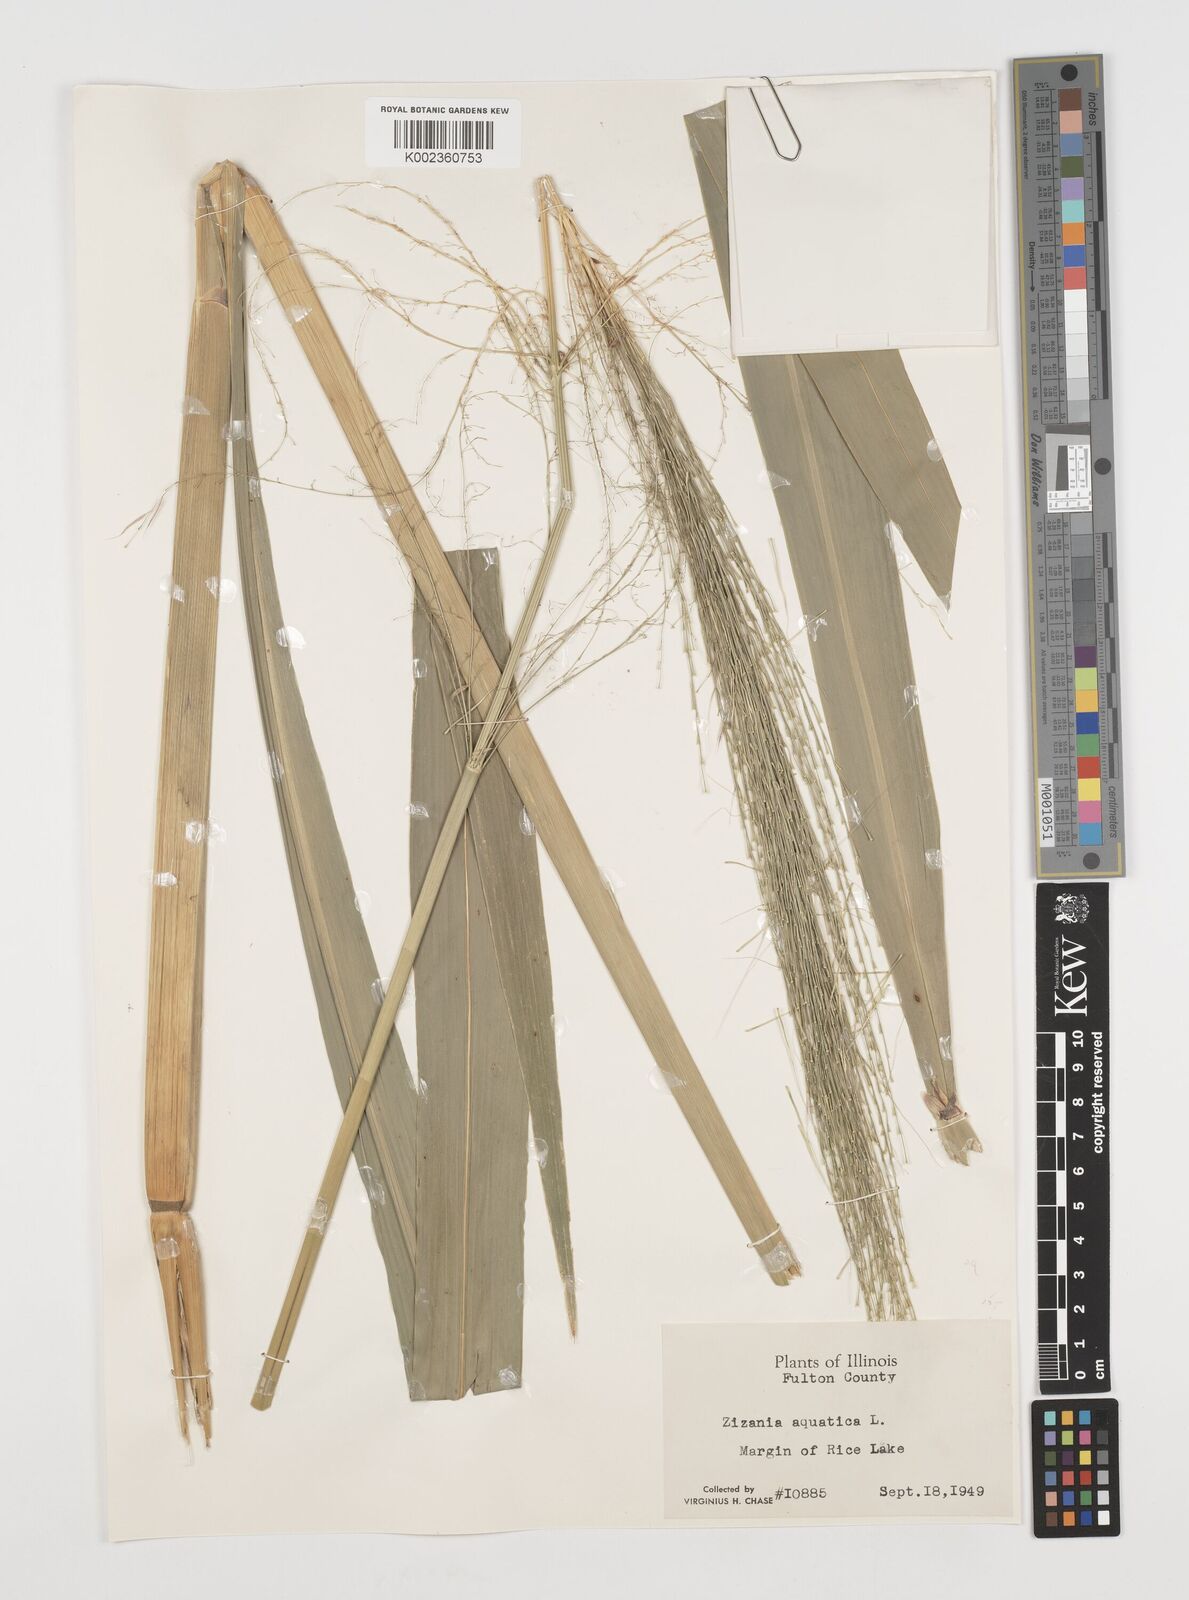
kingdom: Plantae
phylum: Tracheophyta
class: Liliopsida
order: Poales
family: Poaceae
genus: Zizania
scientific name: Zizania aquatica
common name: Annual wildrice
